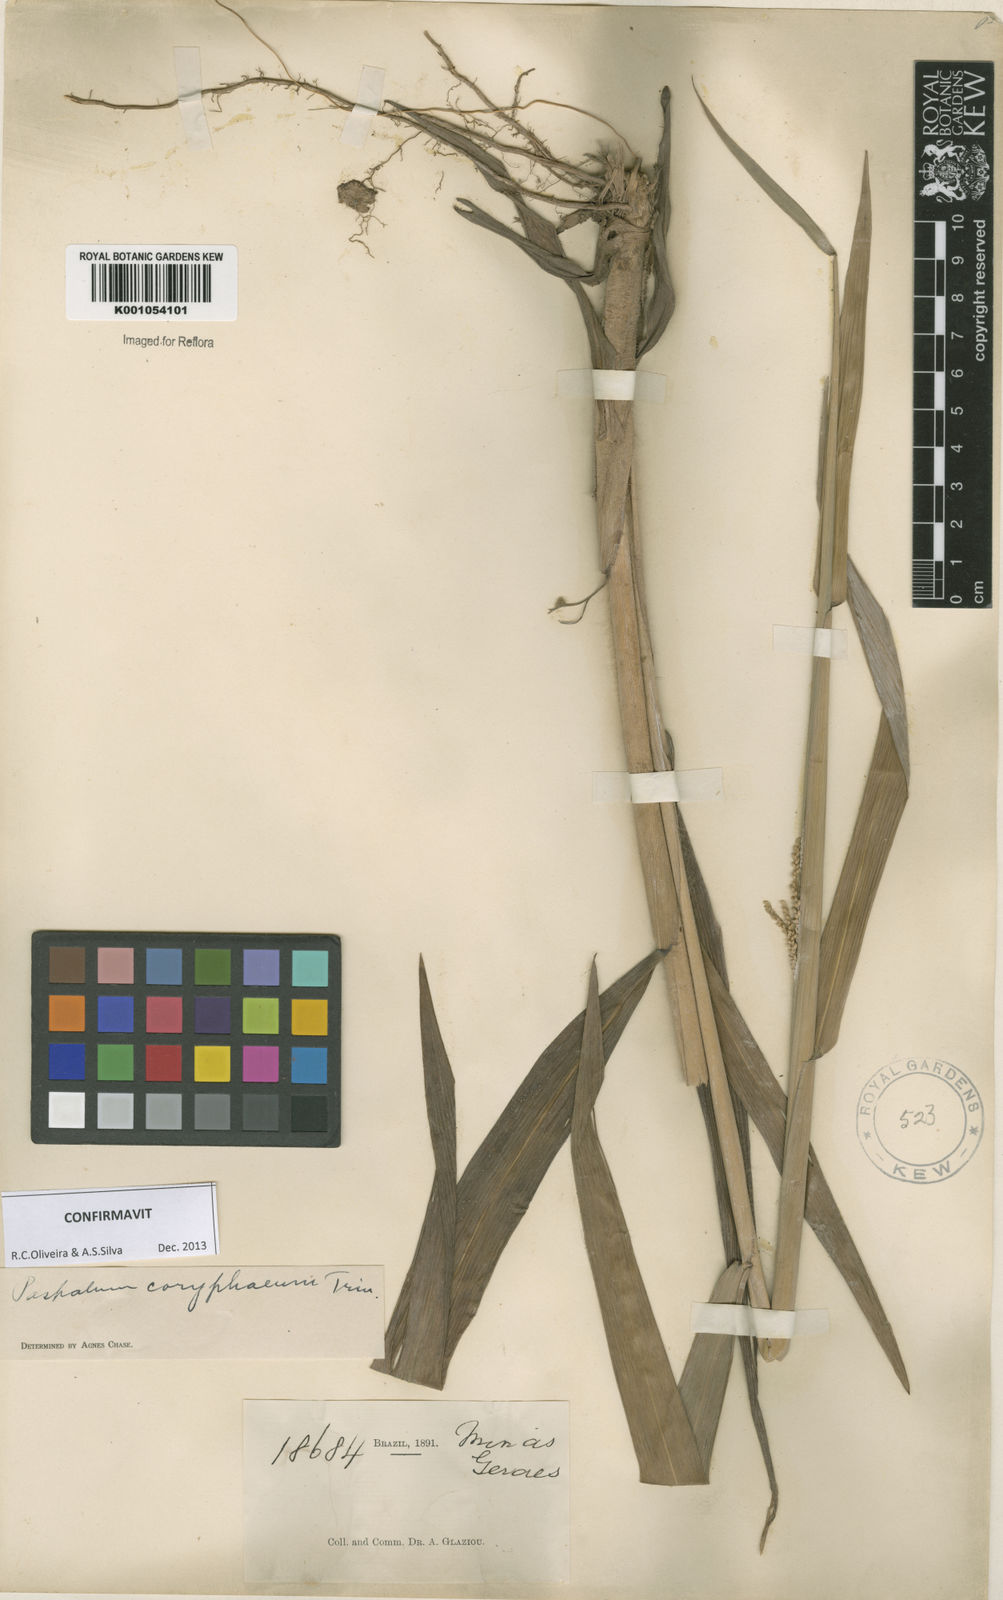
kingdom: Plantae
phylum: Tracheophyta
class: Liliopsida
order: Poales
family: Poaceae
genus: Paspalum
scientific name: Paspalum coryphaeum
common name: Emperor crowngrass
